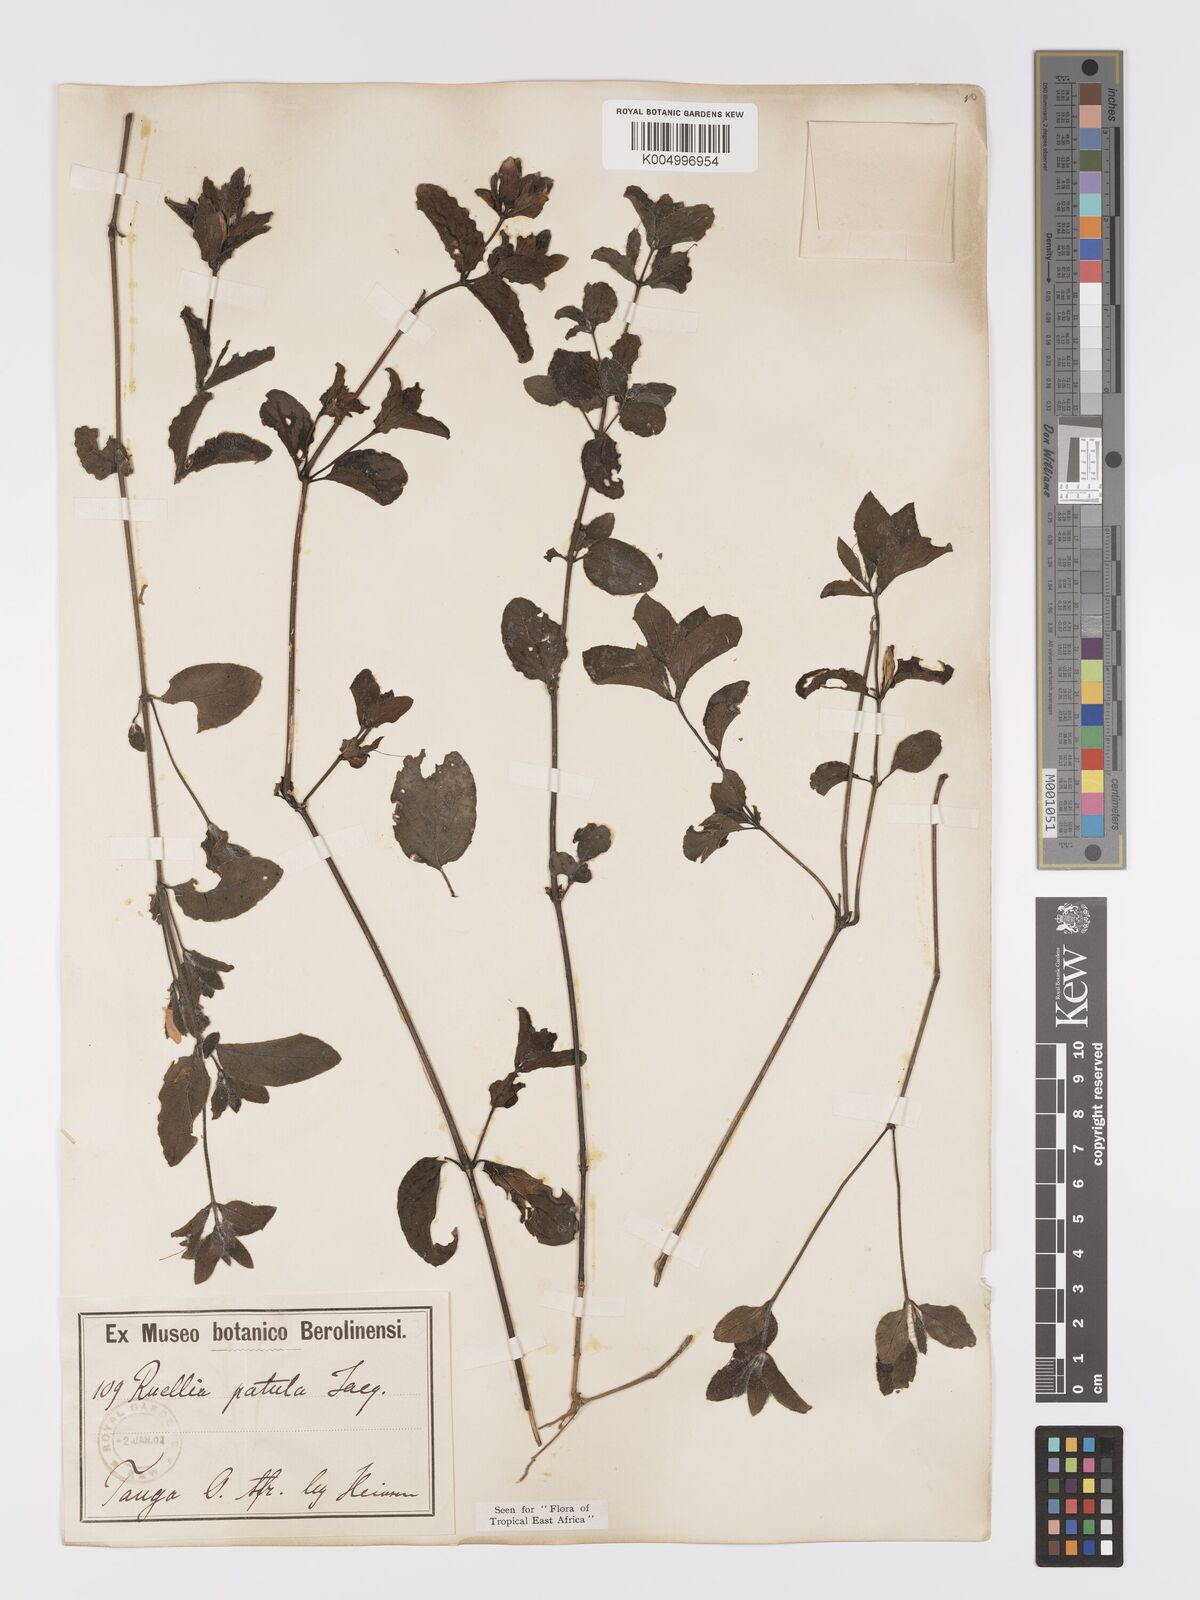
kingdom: Plantae
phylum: Tracheophyta
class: Magnoliopsida
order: Lamiales
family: Acanthaceae
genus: Ruellia
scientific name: Ruellia patula
